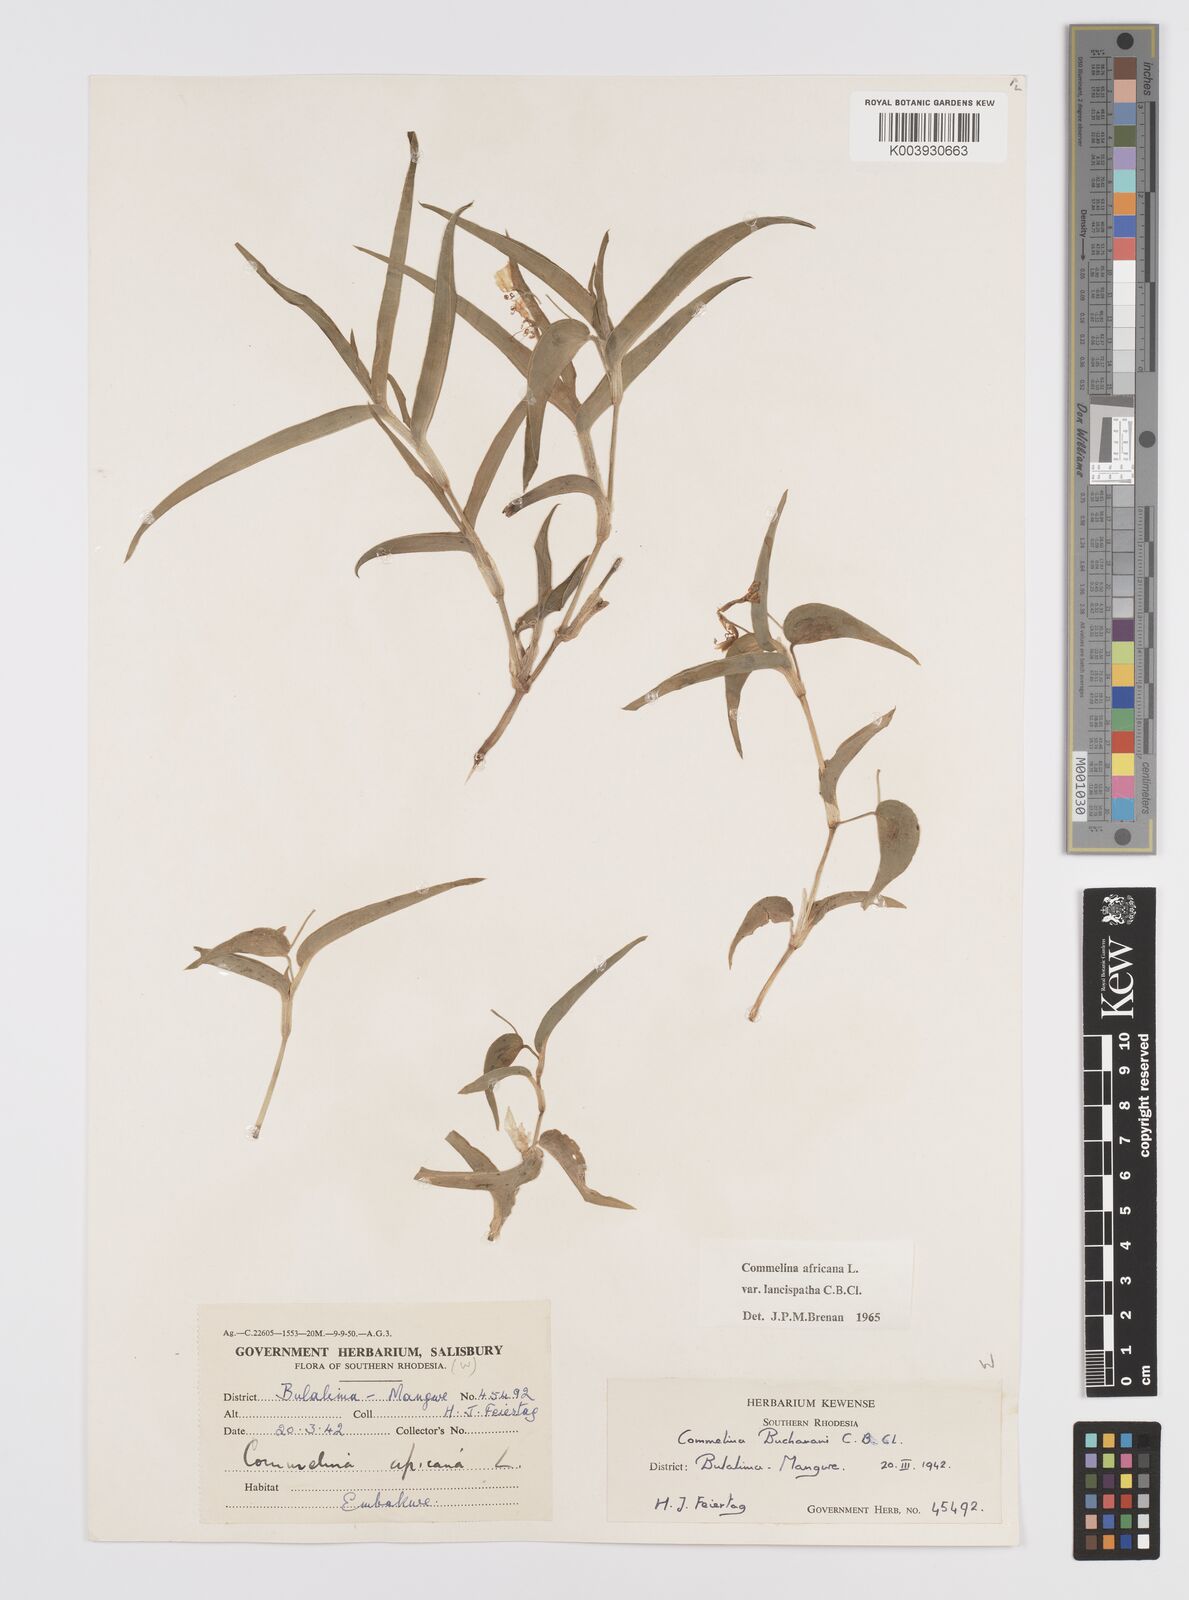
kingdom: Plantae
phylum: Tracheophyta
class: Liliopsida
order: Commelinales
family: Commelinaceae
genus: Commelina
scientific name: Commelina africana
